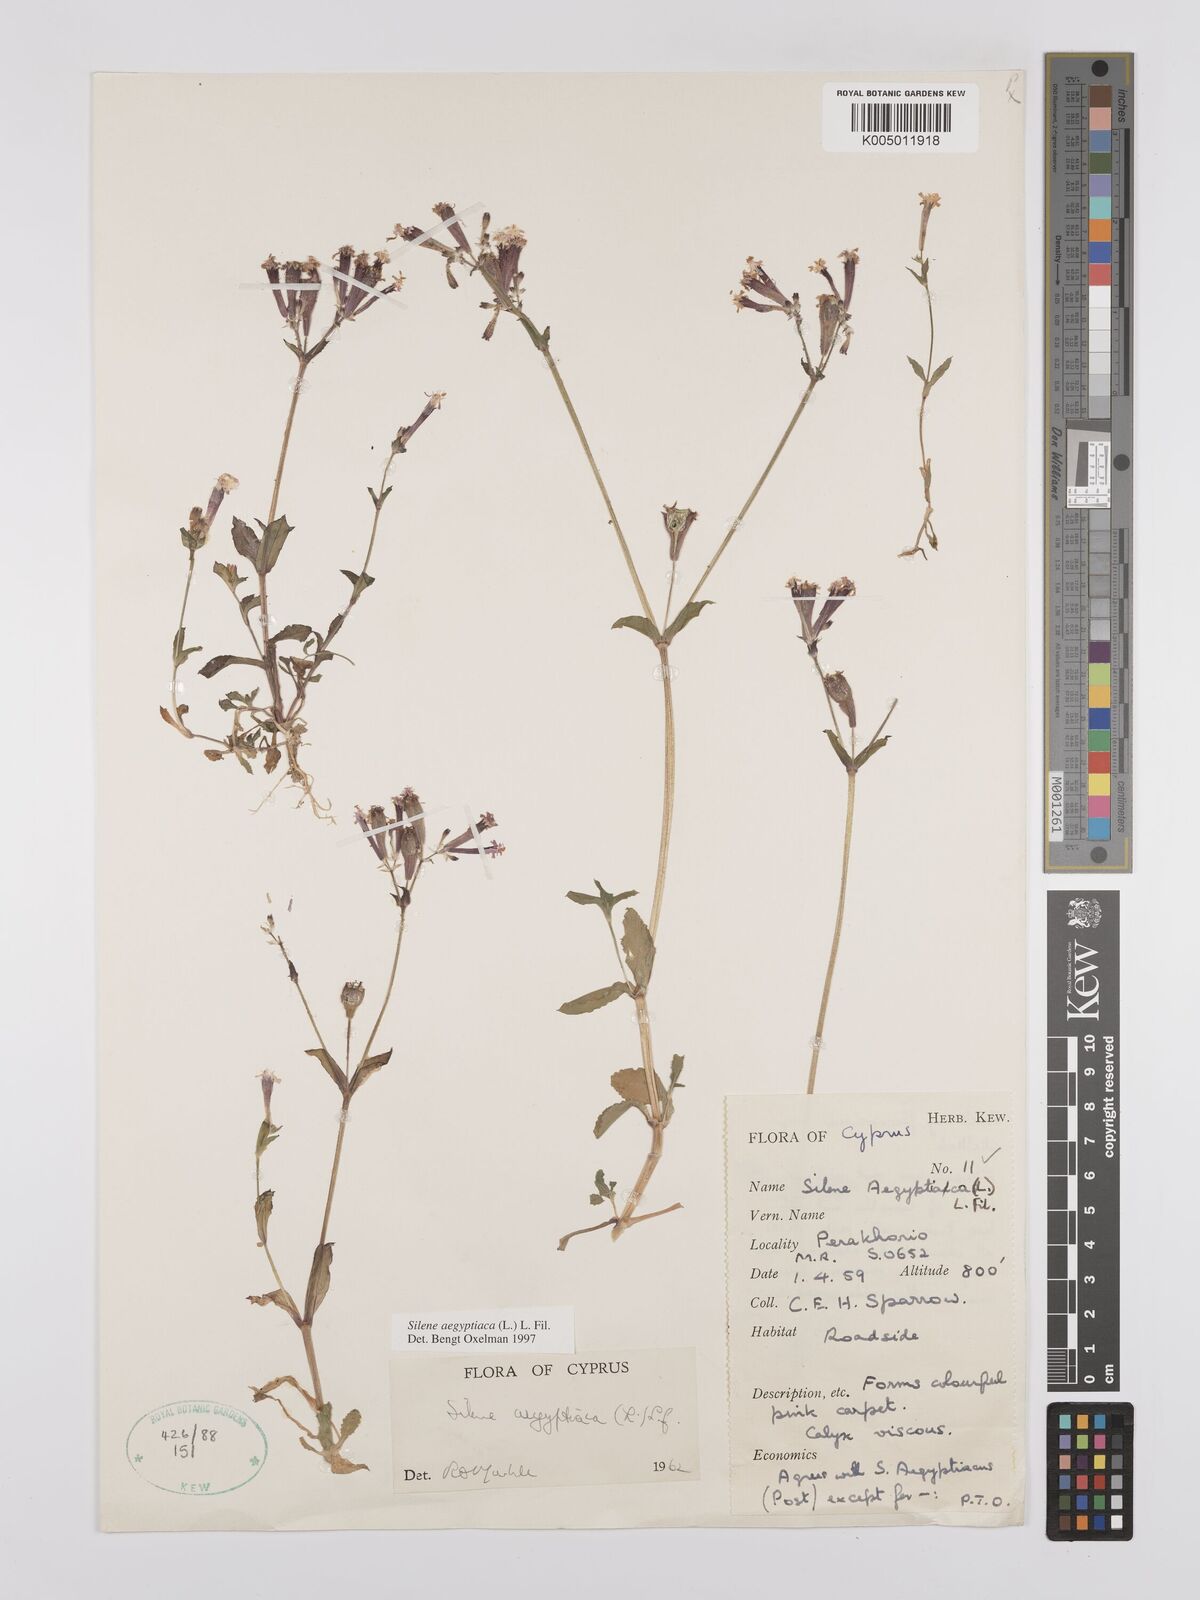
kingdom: Plantae
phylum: Tracheophyta
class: Magnoliopsida
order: Caryophyllales
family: Caryophyllaceae
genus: Silene
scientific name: Silene aegyptiaca
